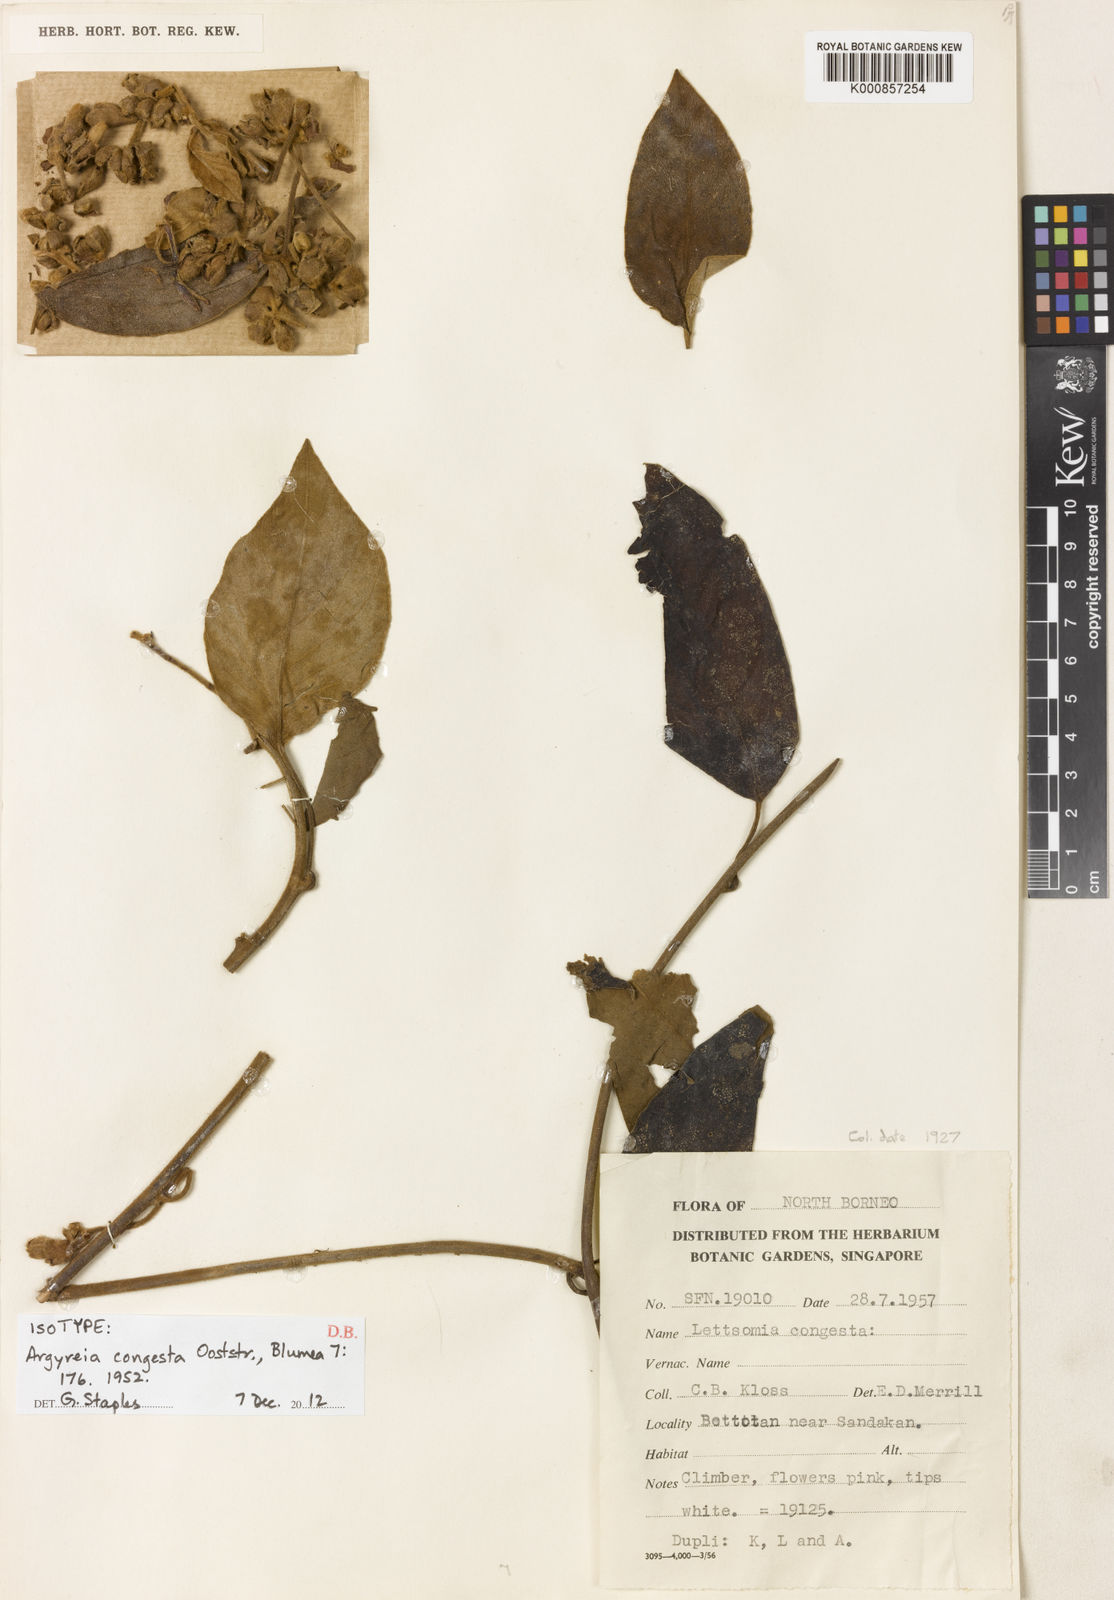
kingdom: Plantae
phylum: Tracheophyta
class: Magnoliopsida
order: Solanales
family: Convolvulaceae
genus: Argyreia
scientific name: Argyreia congesta
